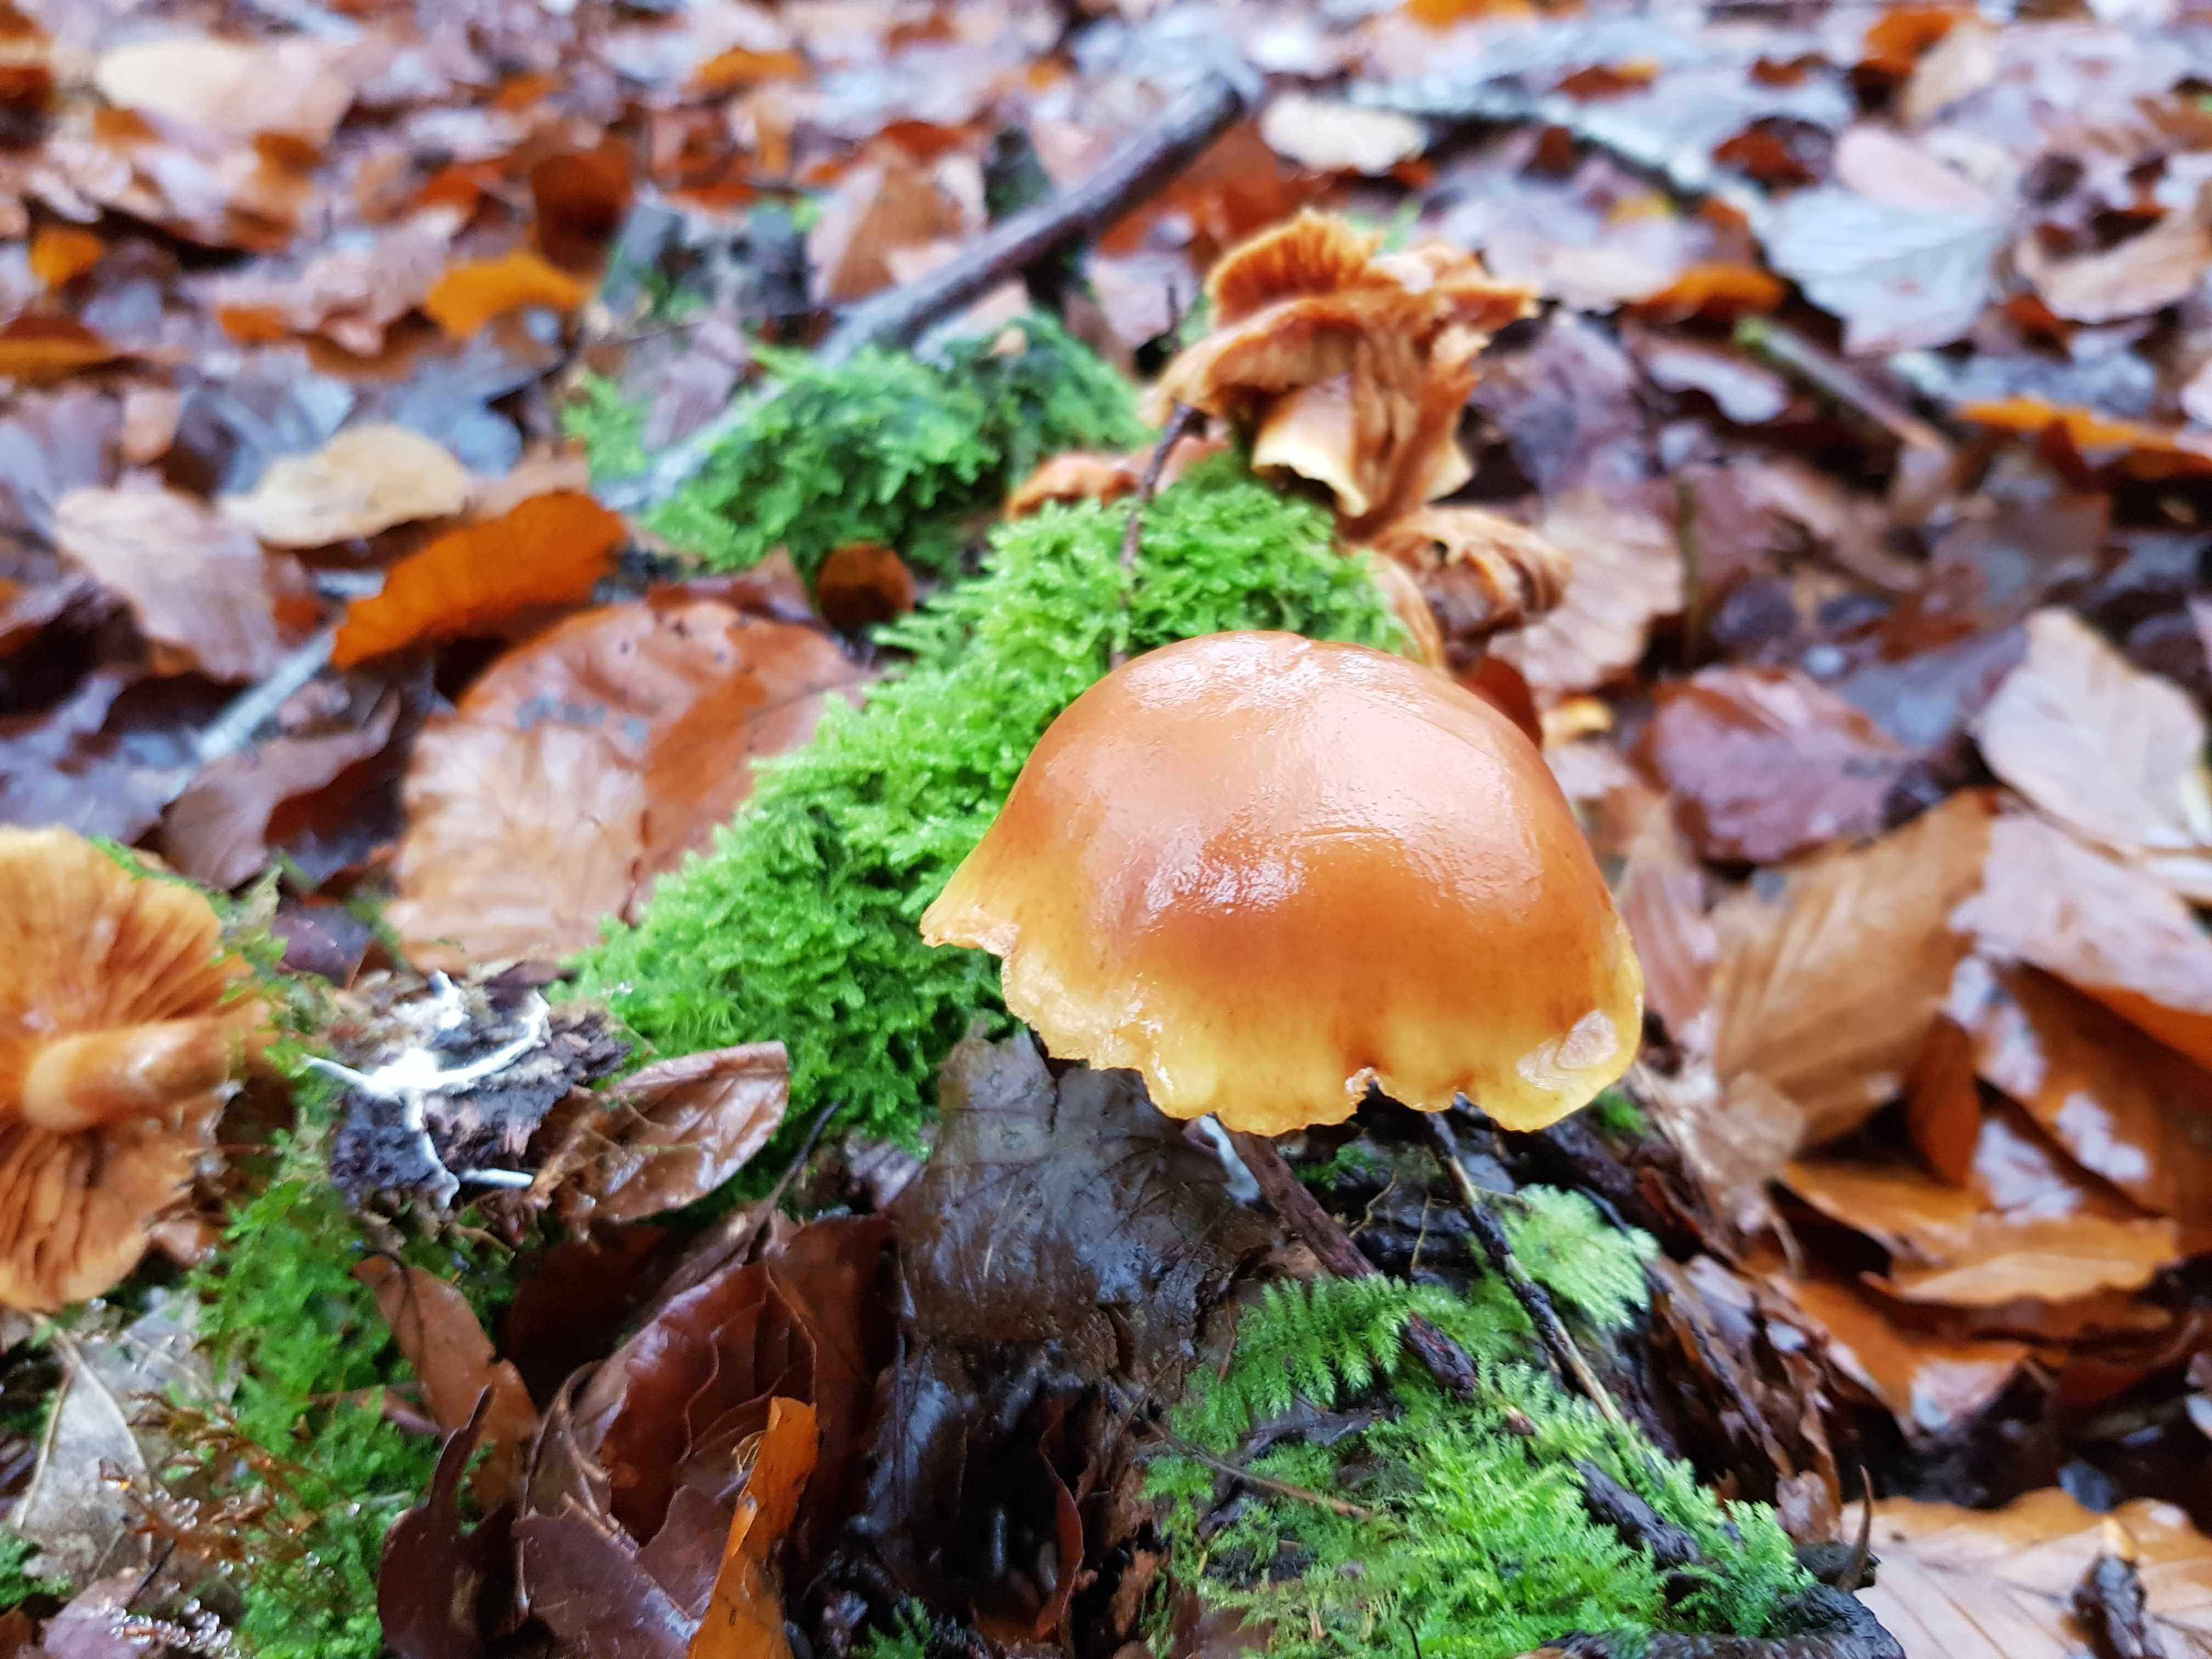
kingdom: Fungi
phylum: Basidiomycota
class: Agaricomycetes
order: Agaricales
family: Hymenogastraceae
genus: Gymnopilus
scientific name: Gymnopilus penetrans
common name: plettet flammehat
